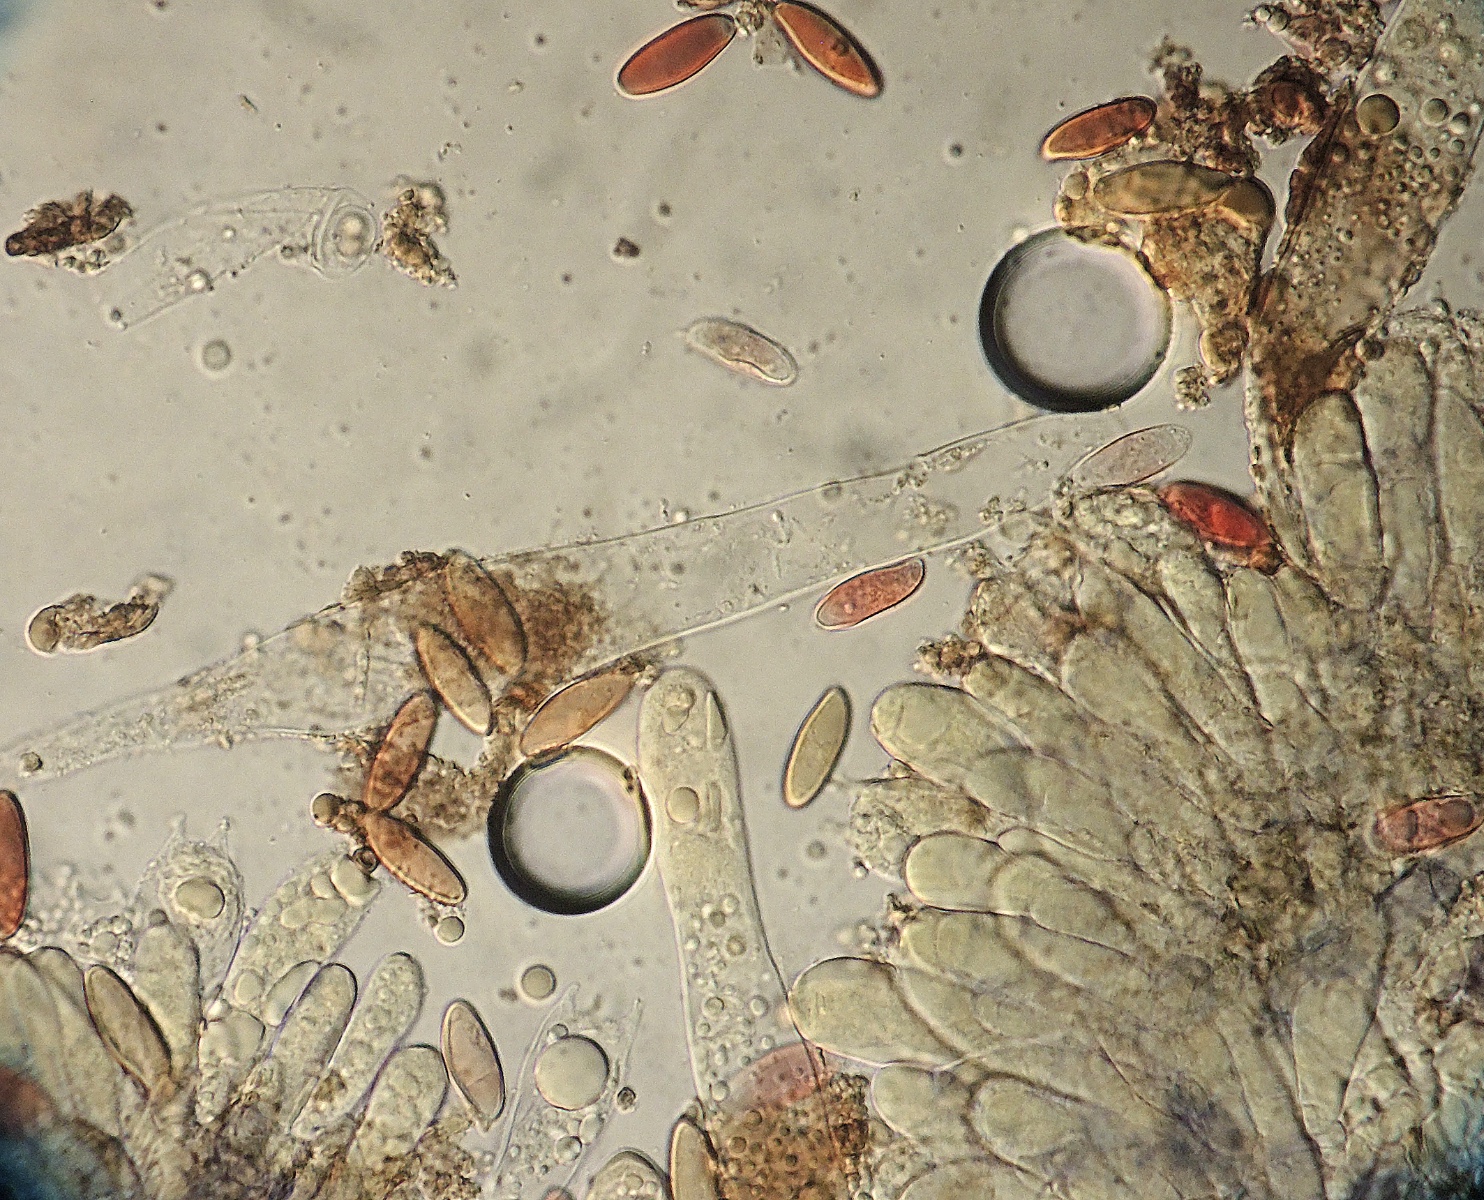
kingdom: Fungi
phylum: Basidiomycota
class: Agaricomycetes
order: Boletales
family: Gomphidiaceae
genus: Chroogomphus
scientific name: Chroogomphus rutilus
